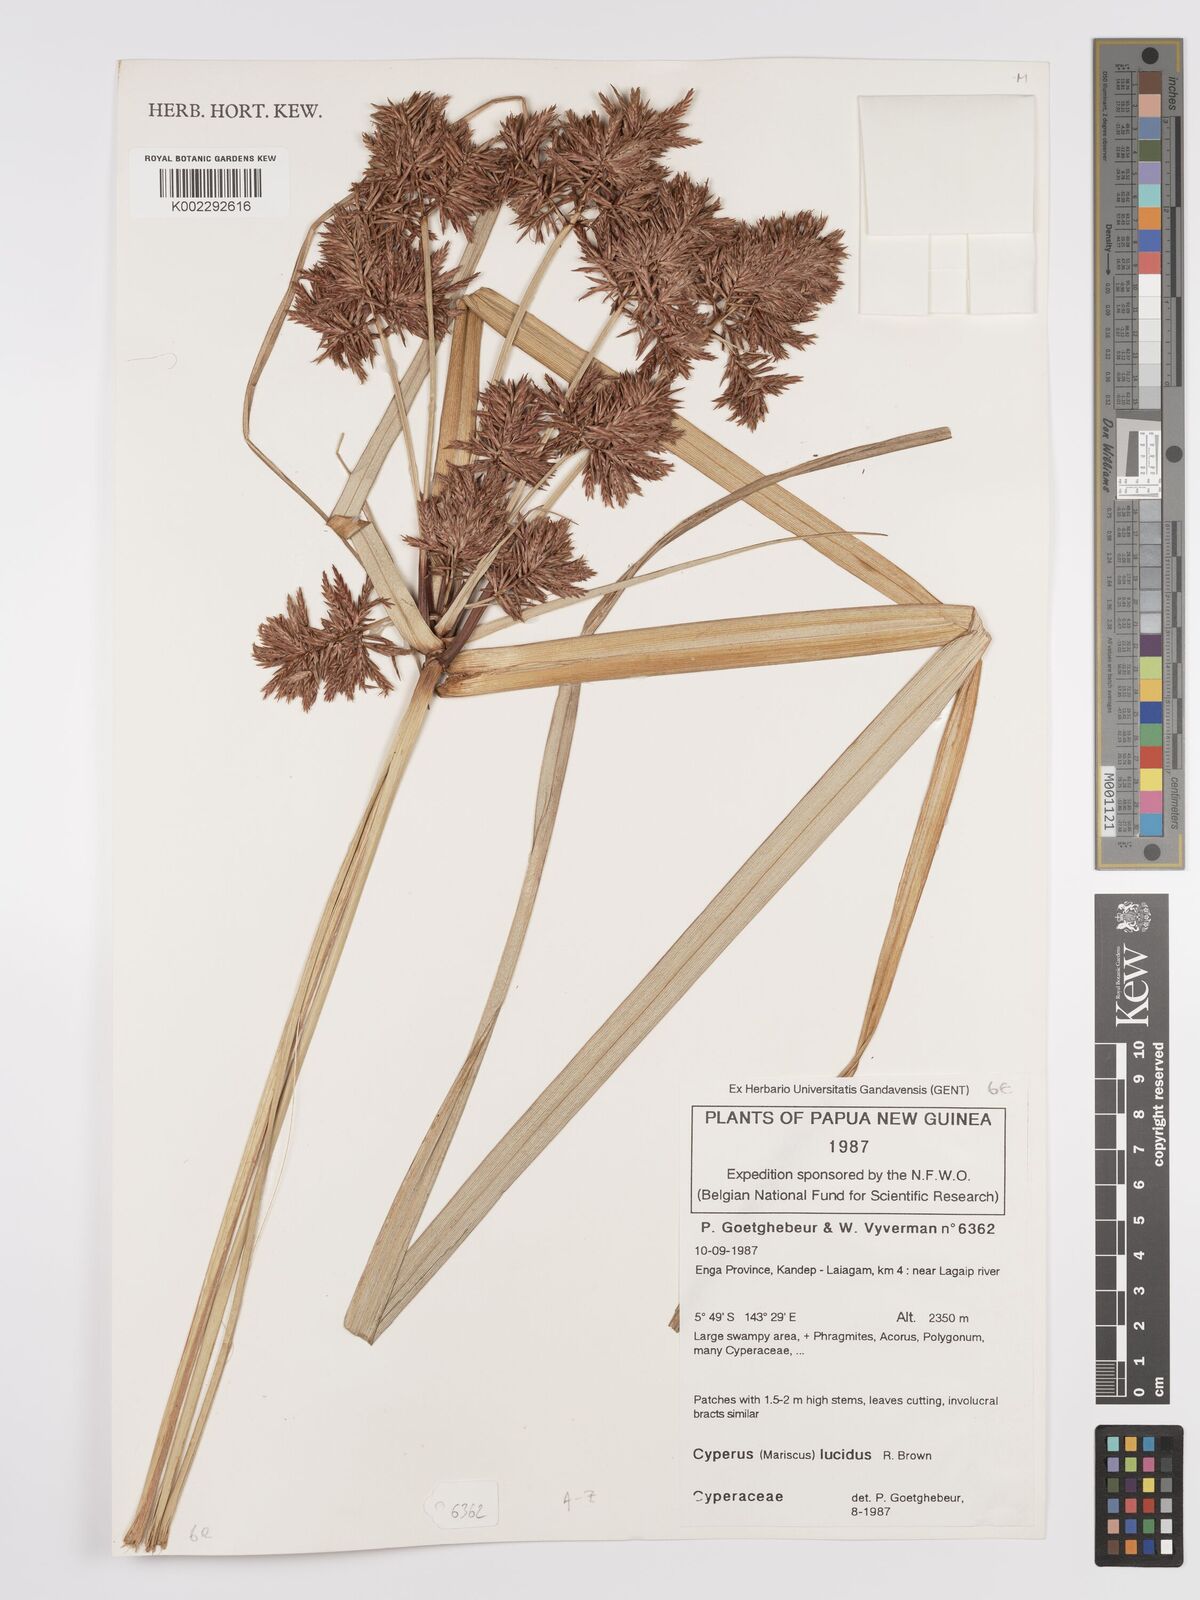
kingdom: Plantae
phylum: Tracheophyta
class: Liliopsida
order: Poales
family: Cyperaceae
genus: Cyperus
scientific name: Cyperus
